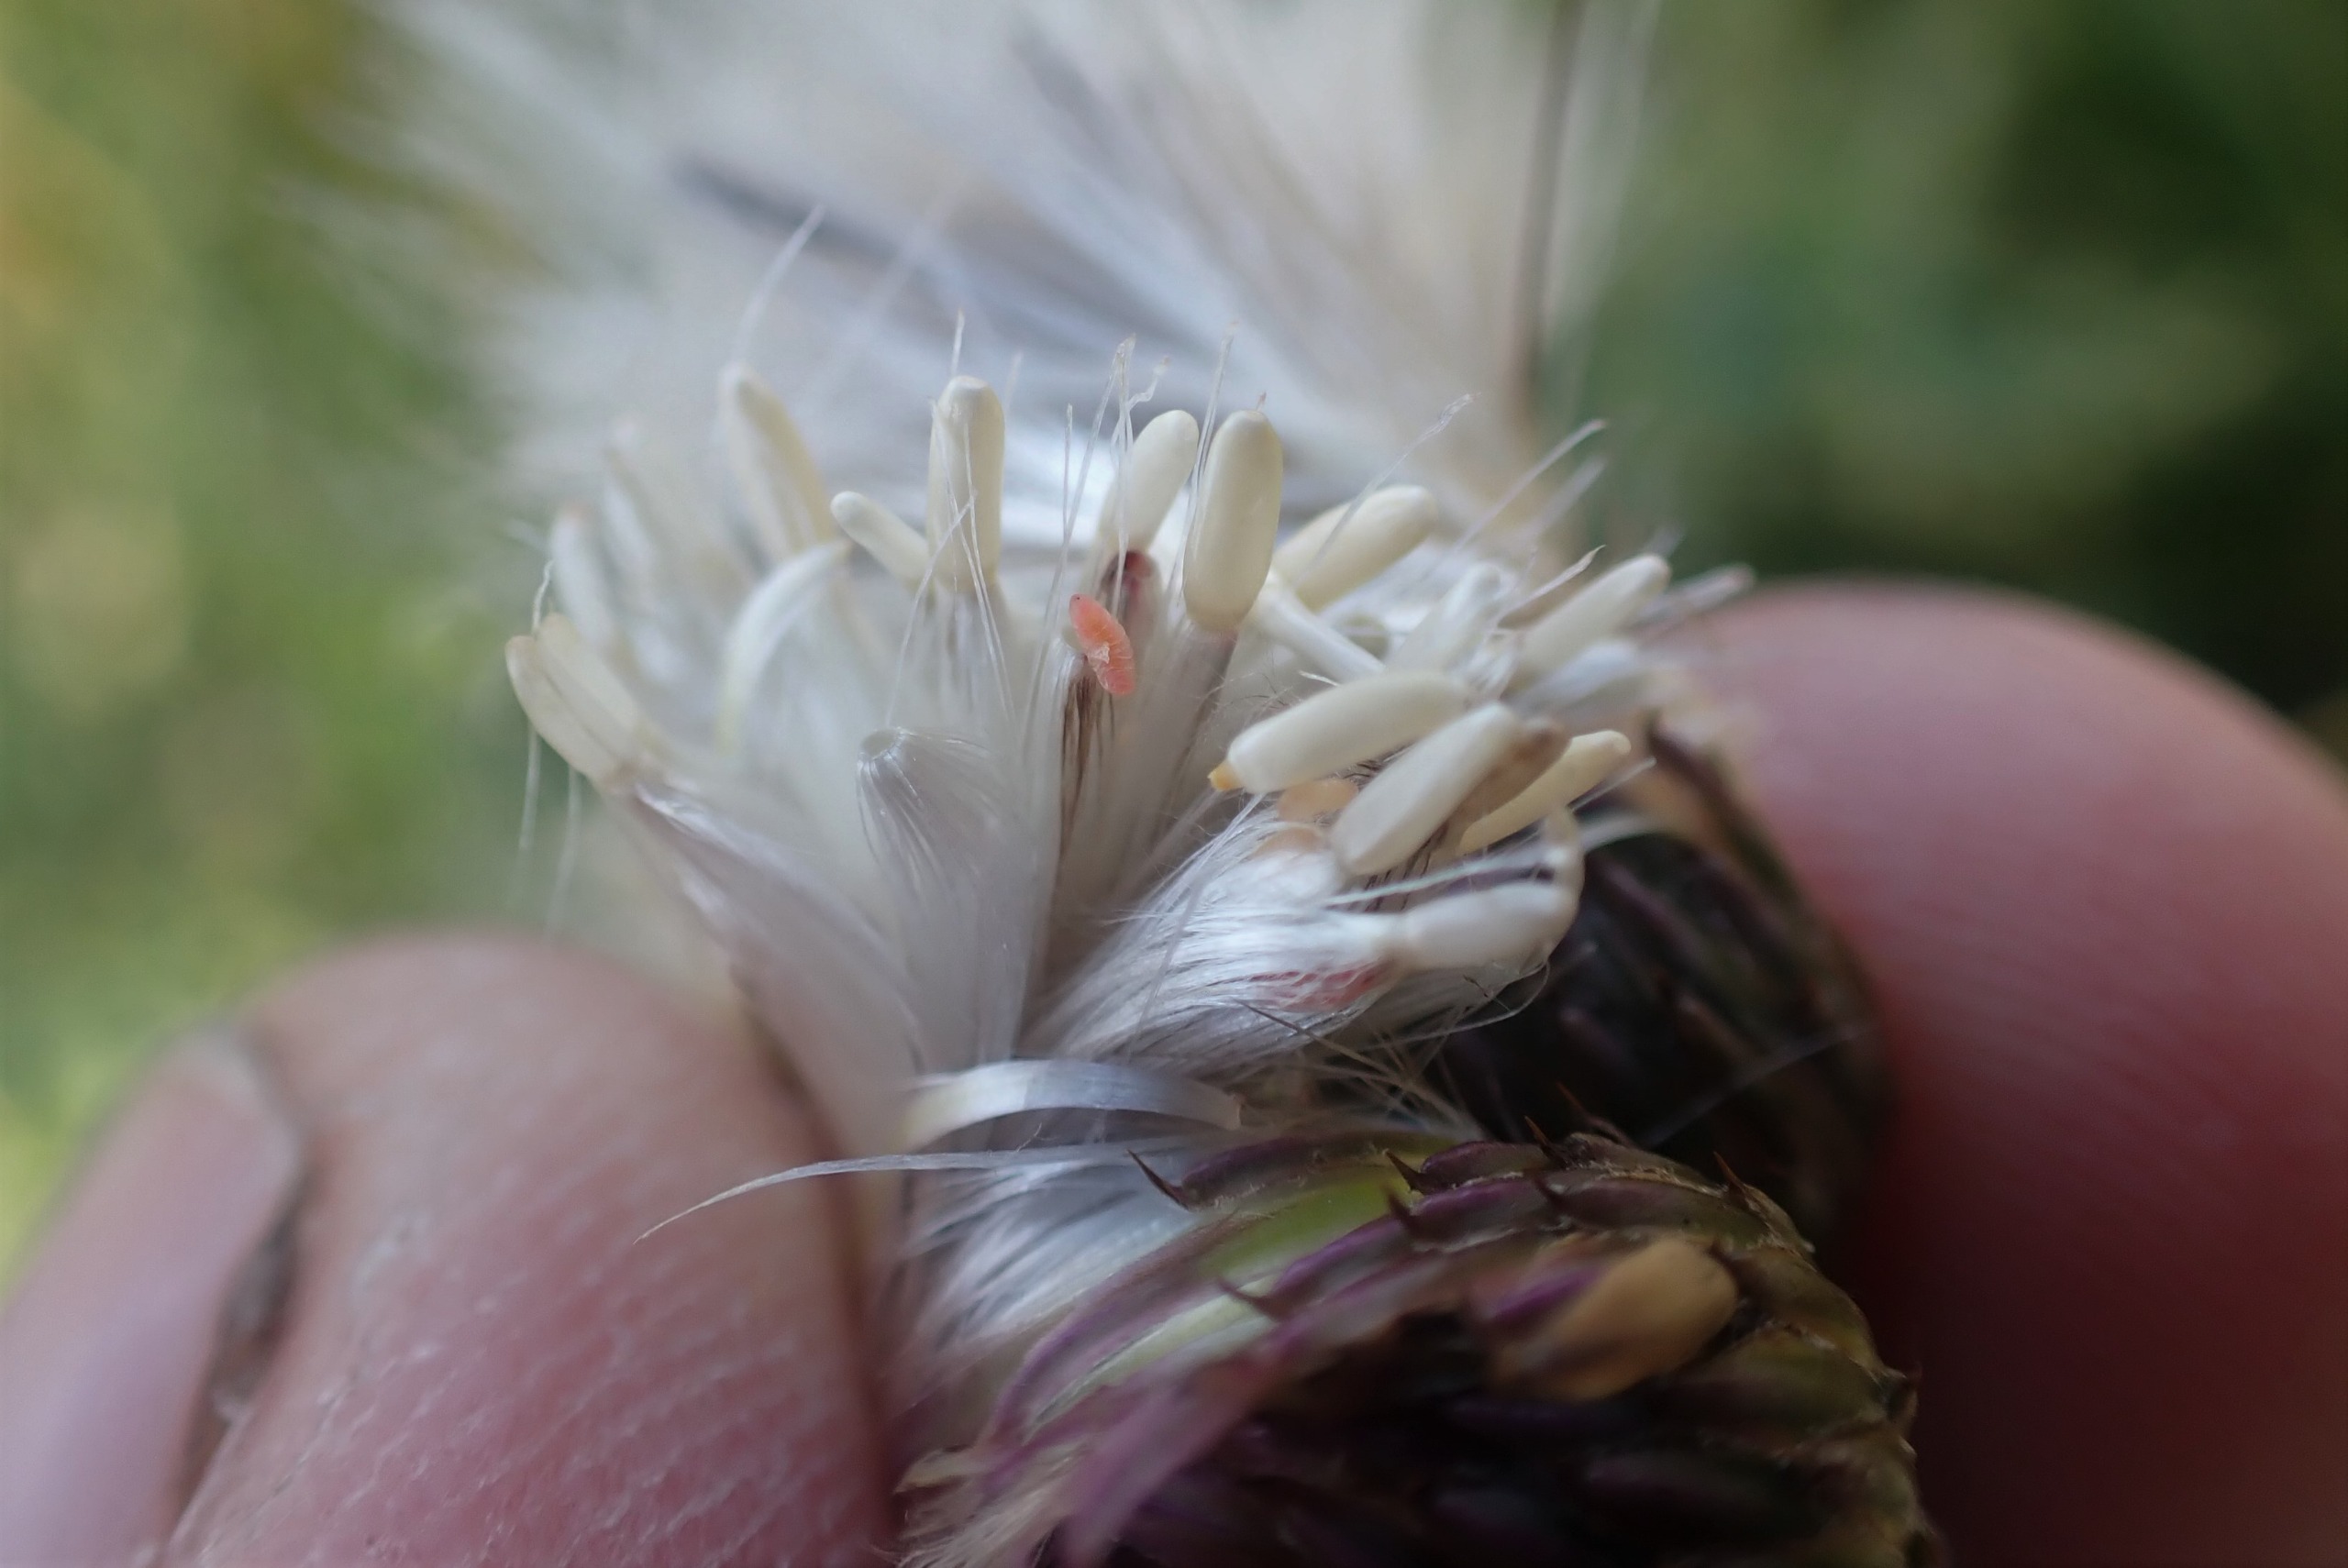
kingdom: Animalia
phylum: Arthropoda
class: Insecta
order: Diptera
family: Cecidomyiidae
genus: Jaapiella
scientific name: Jaapiella cirsiicola
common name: Tidselgalmyg
